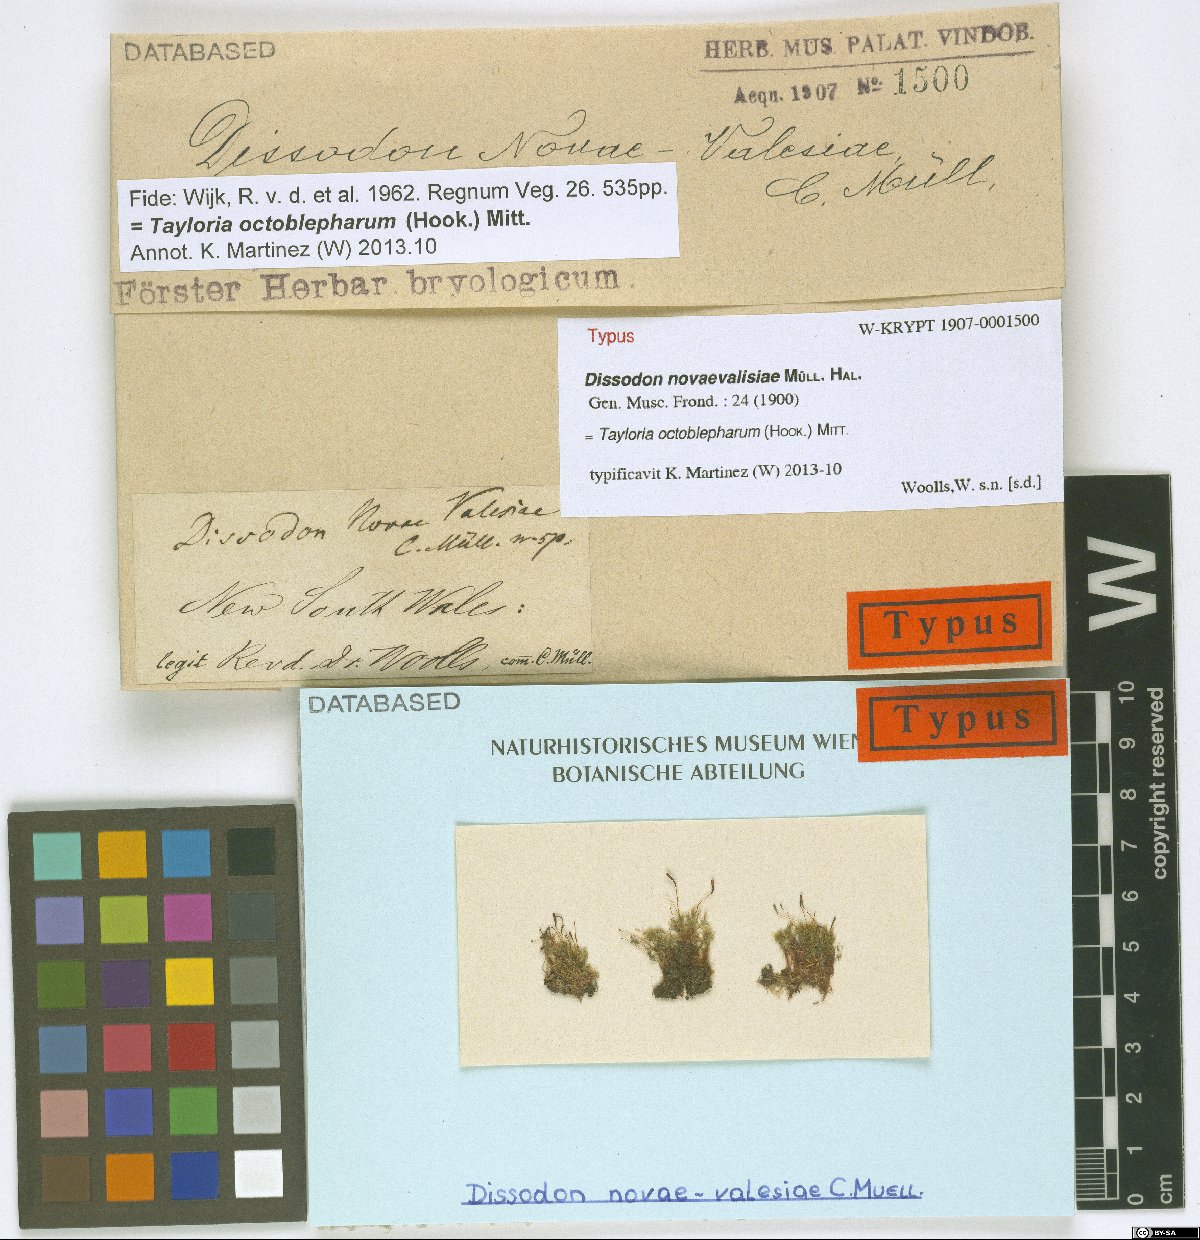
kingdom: Plantae
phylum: Bryophyta
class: Bryopsida
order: Splachnales
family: Splachnaceae
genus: Tayloria
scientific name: Tayloria octoblephara
